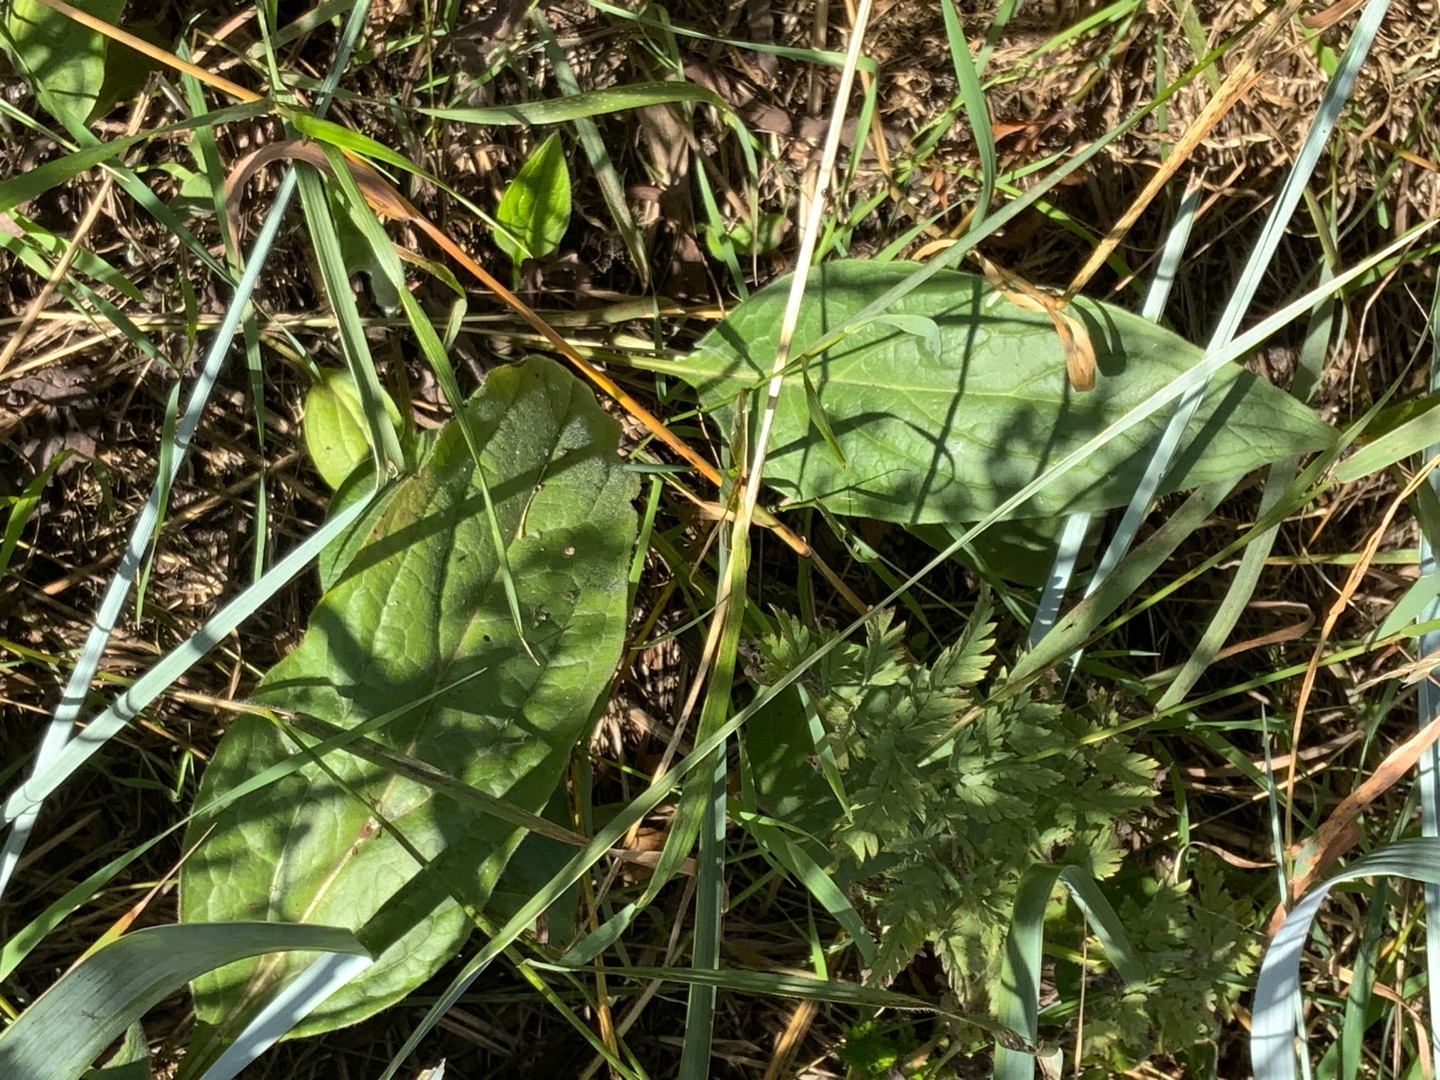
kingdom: Plantae
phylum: Tracheophyta
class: Magnoliopsida
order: Boraginales
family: Boraginaceae
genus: Cynoglossum
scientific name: Cynoglossum officinale
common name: Hundetunge
